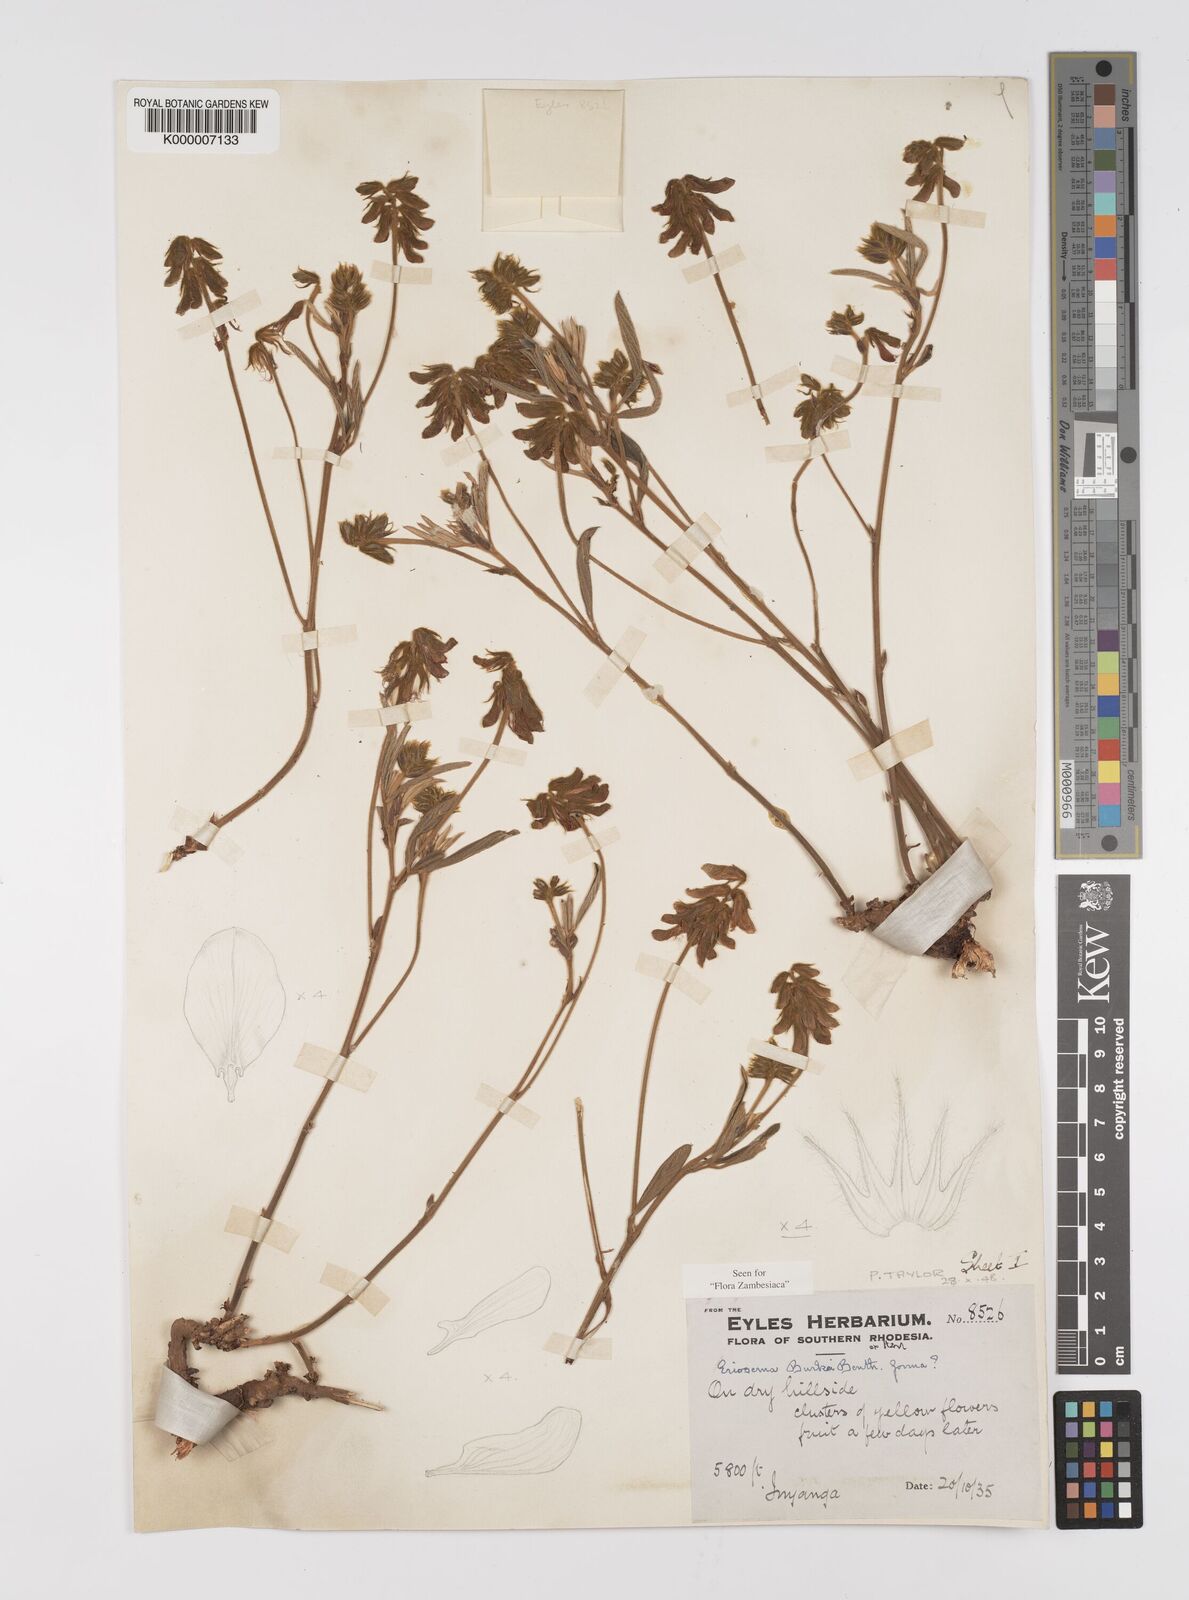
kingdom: Plantae
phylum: Tracheophyta
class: Magnoliopsida
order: Fabales
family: Fabaceae
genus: Eriosema
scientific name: Eriosema burkei
